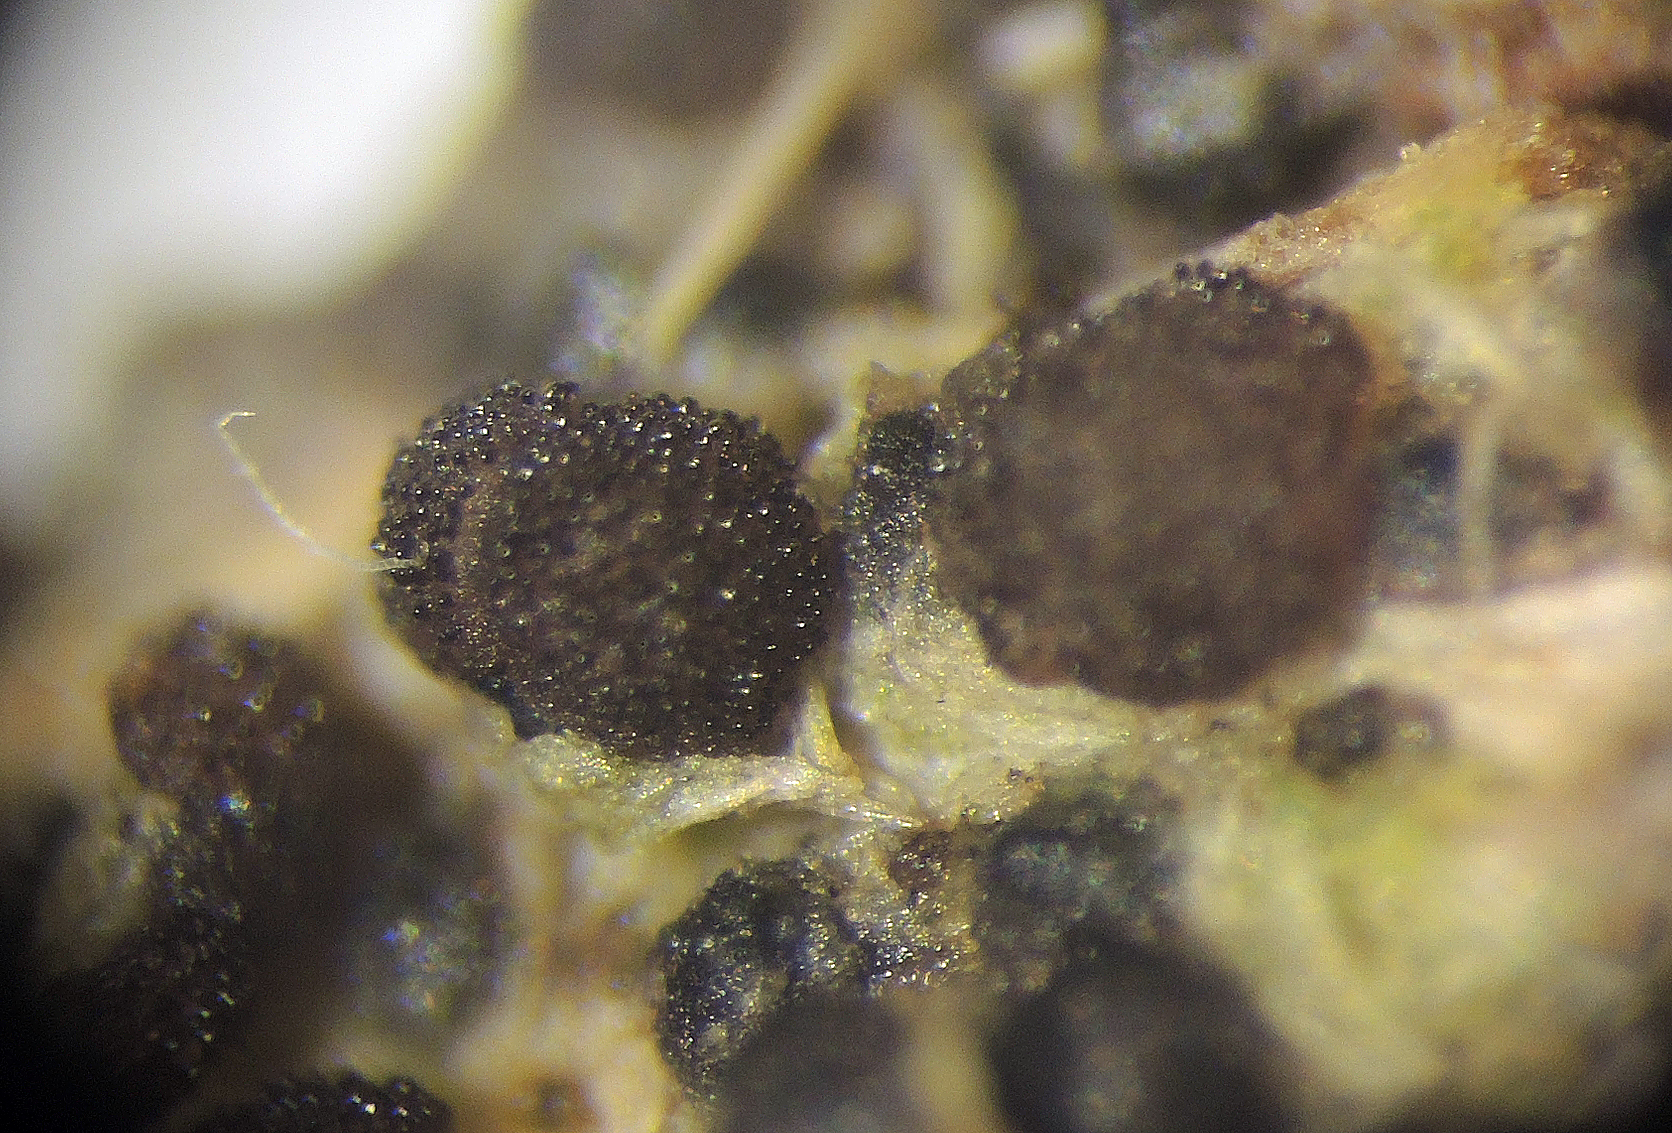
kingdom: Fungi
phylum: Ascomycota
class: Pezizomycetes
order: Pezizales
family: Ascobolaceae
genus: Saccobolus
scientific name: Saccobolus obscurus
